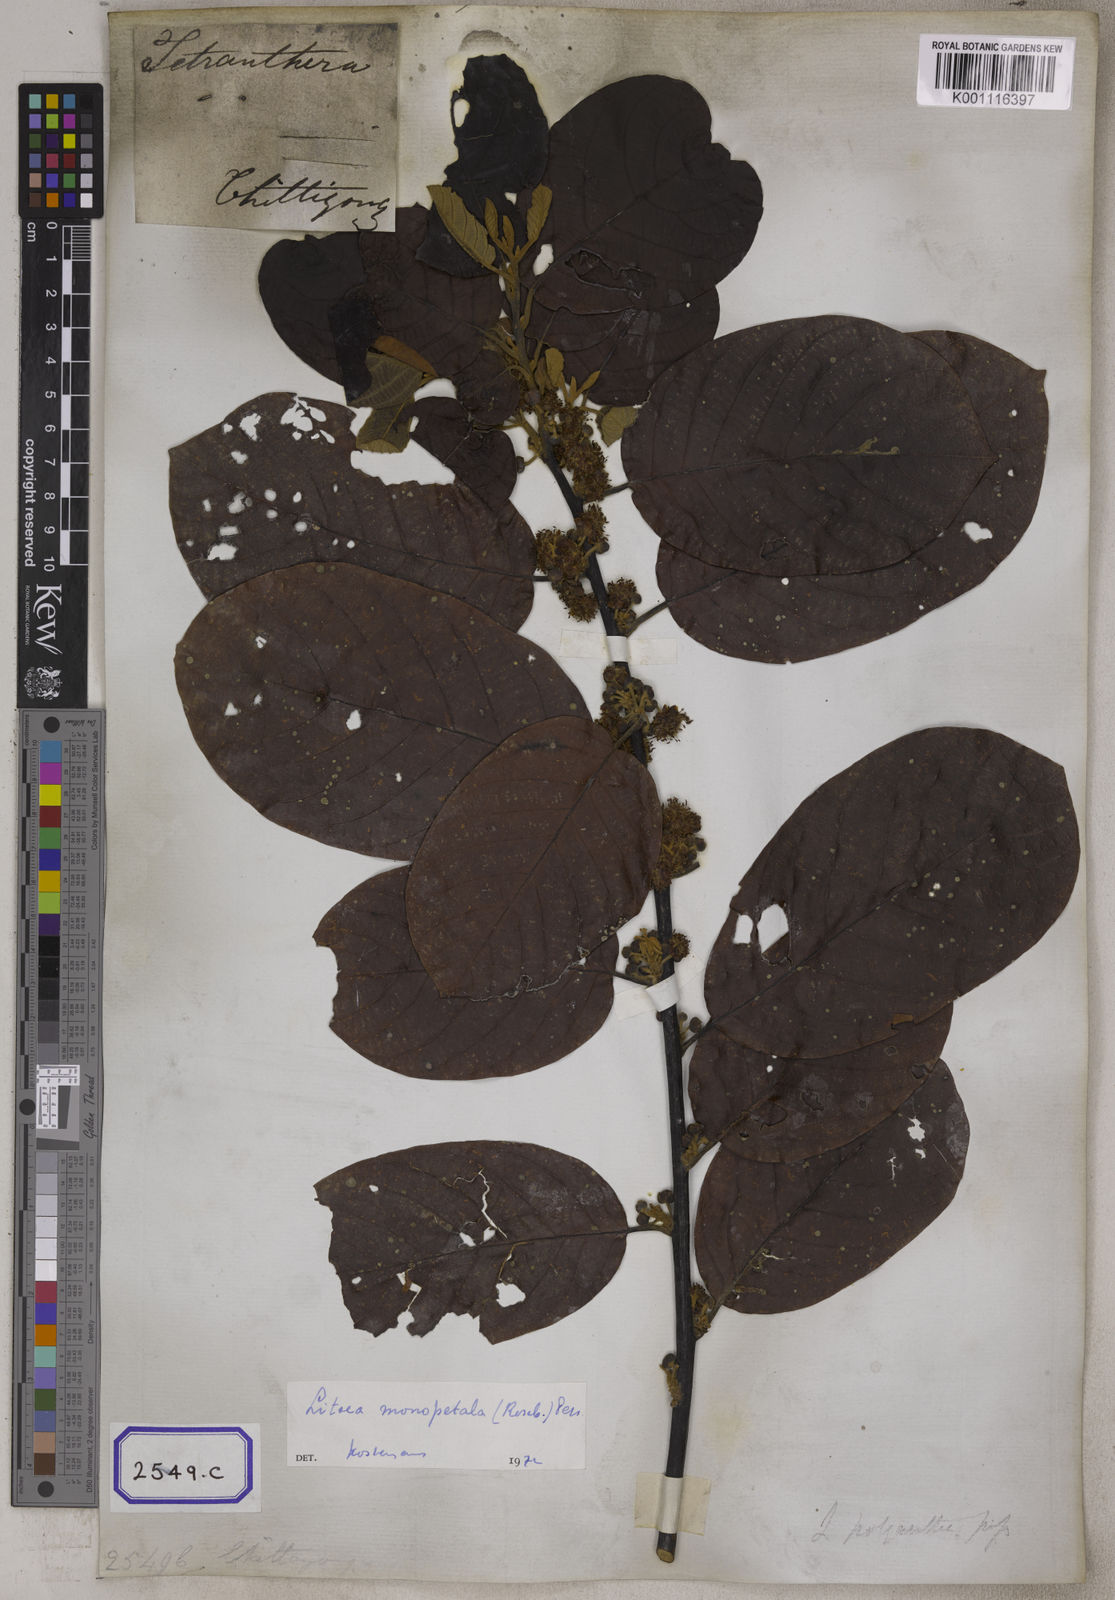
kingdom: Plantae
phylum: Tracheophyta
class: Magnoliopsida
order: Laurales
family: Lauraceae
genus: Litsea
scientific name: Litsea
